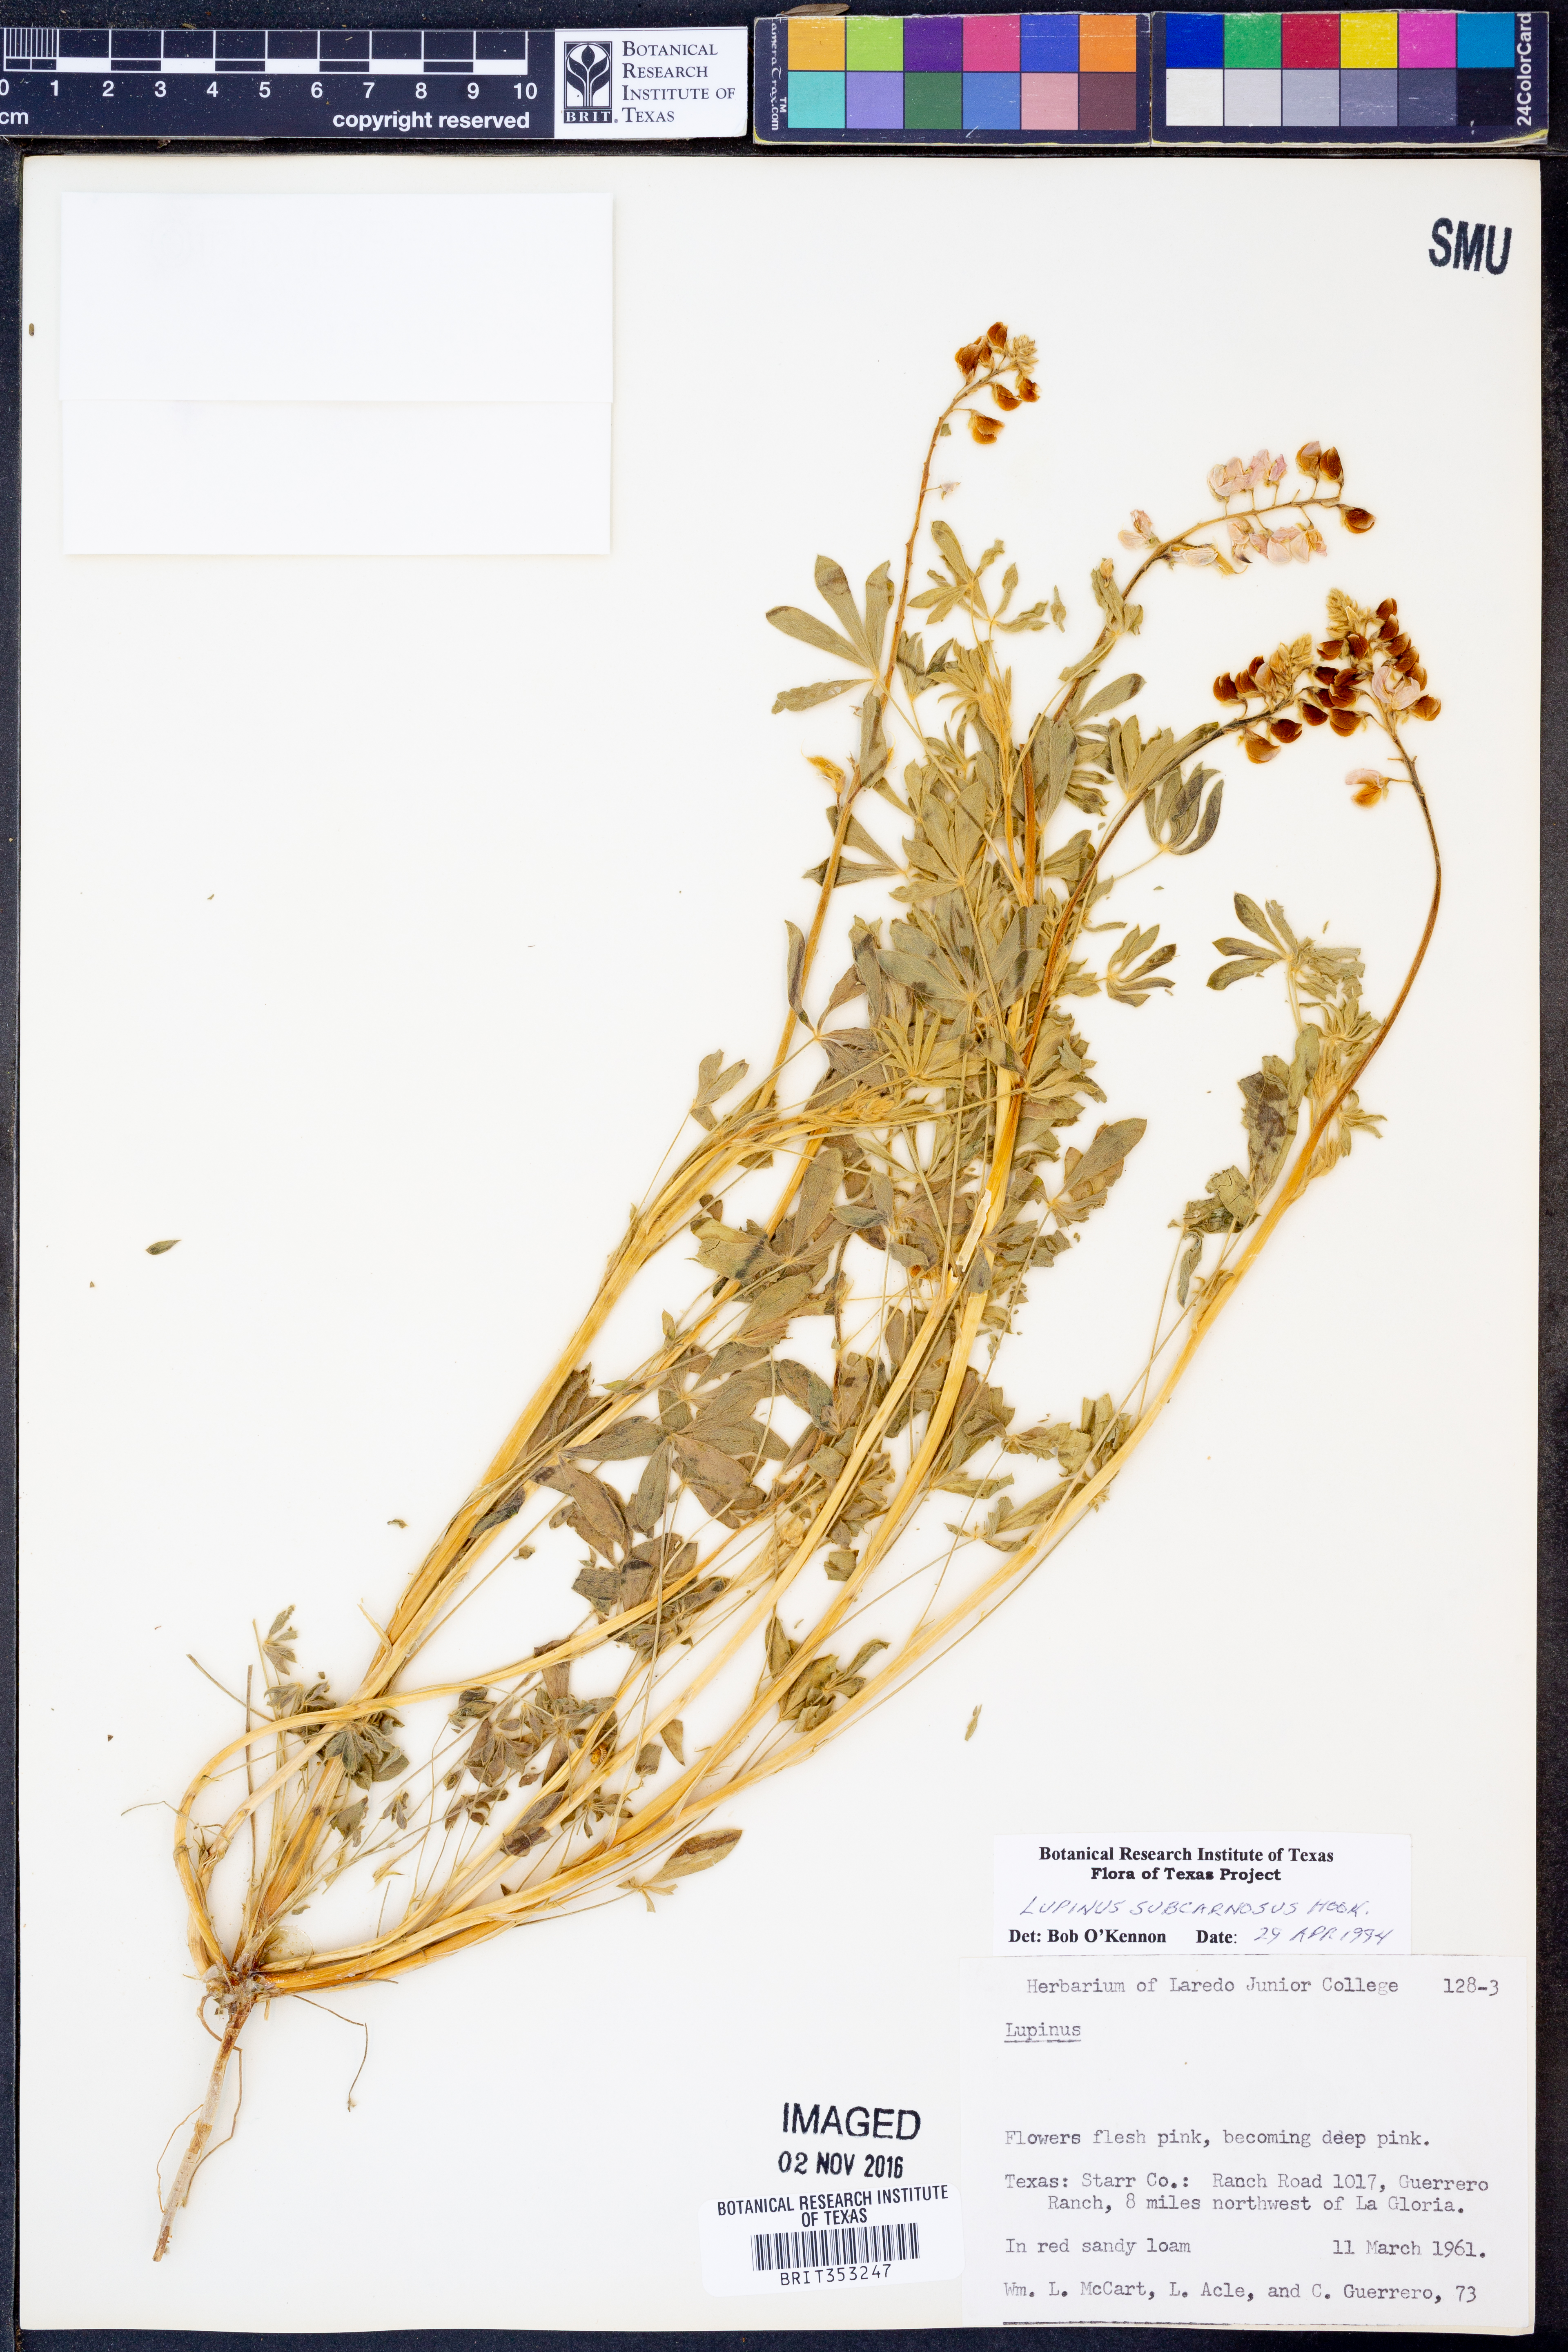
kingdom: Plantae
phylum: Tracheophyta
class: Magnoliopsida
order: Fabales
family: Fabaceae
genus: Lupinus
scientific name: Lupinus subcarnosus
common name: Texas bluebonnet
